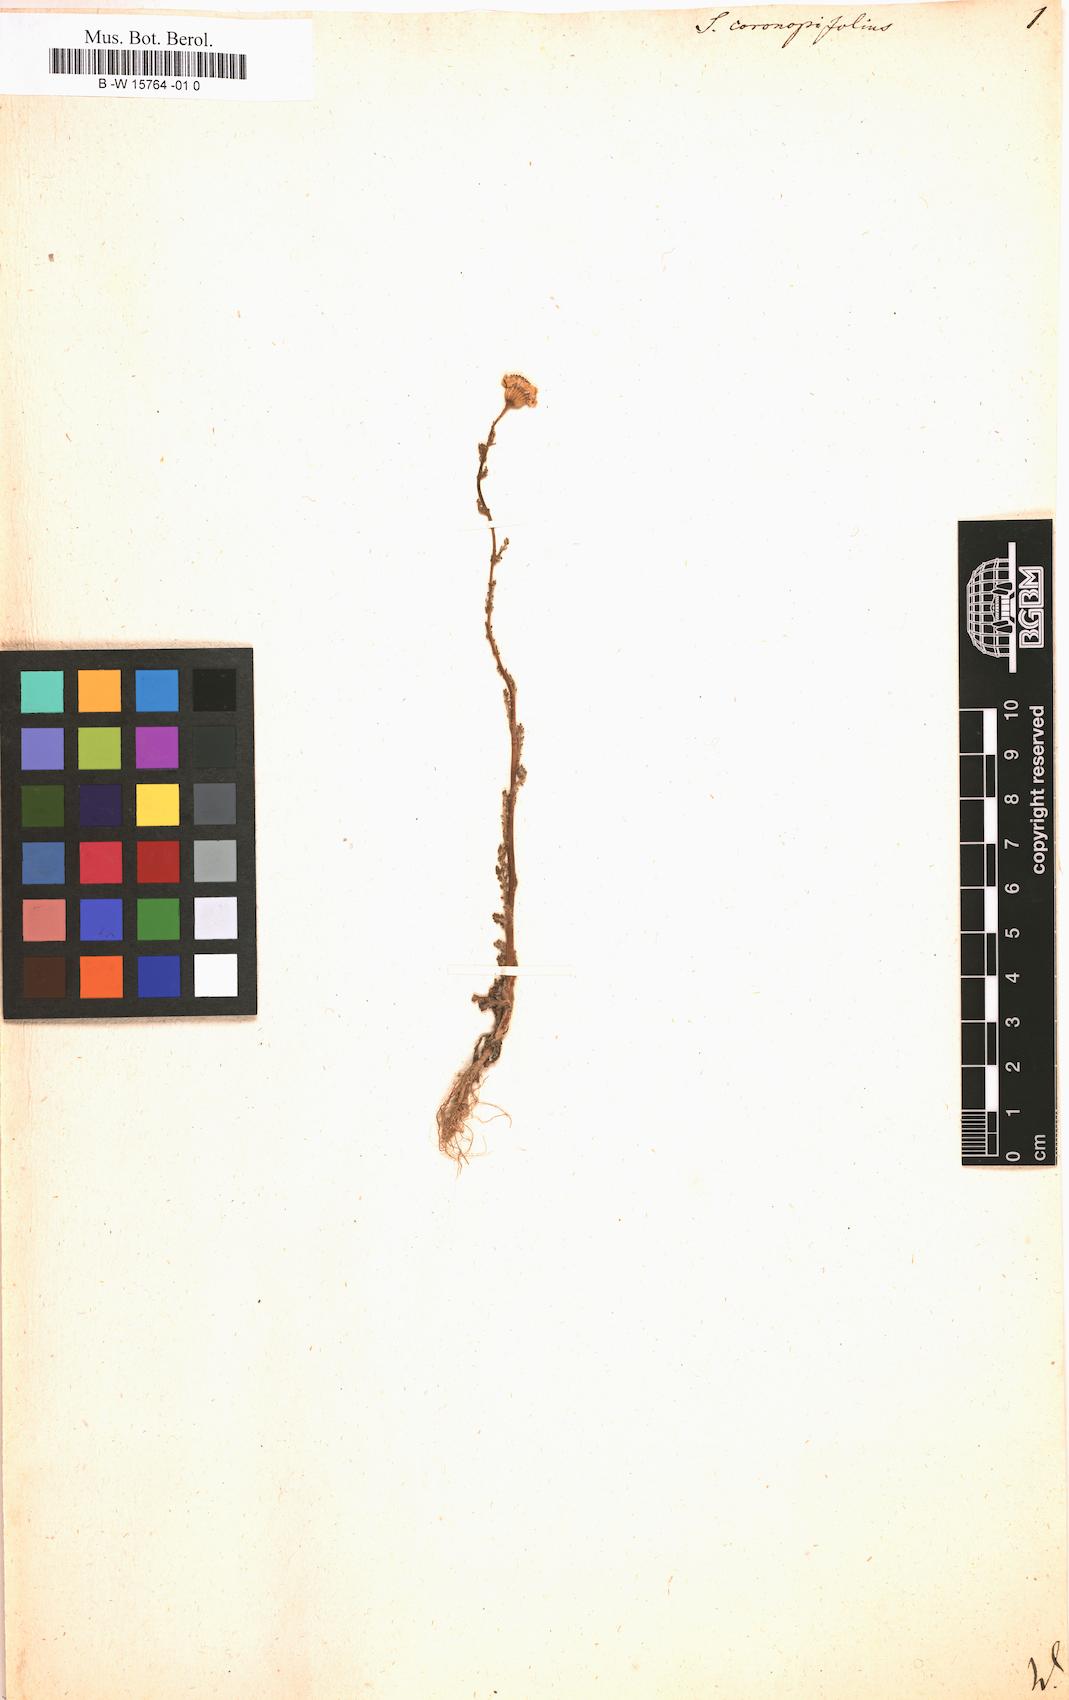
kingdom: Plantae
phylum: Tracheophyta
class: Magnoliopsida
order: Asterales
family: Asteraceae
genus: Senecio
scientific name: Senecio coronopifolius
